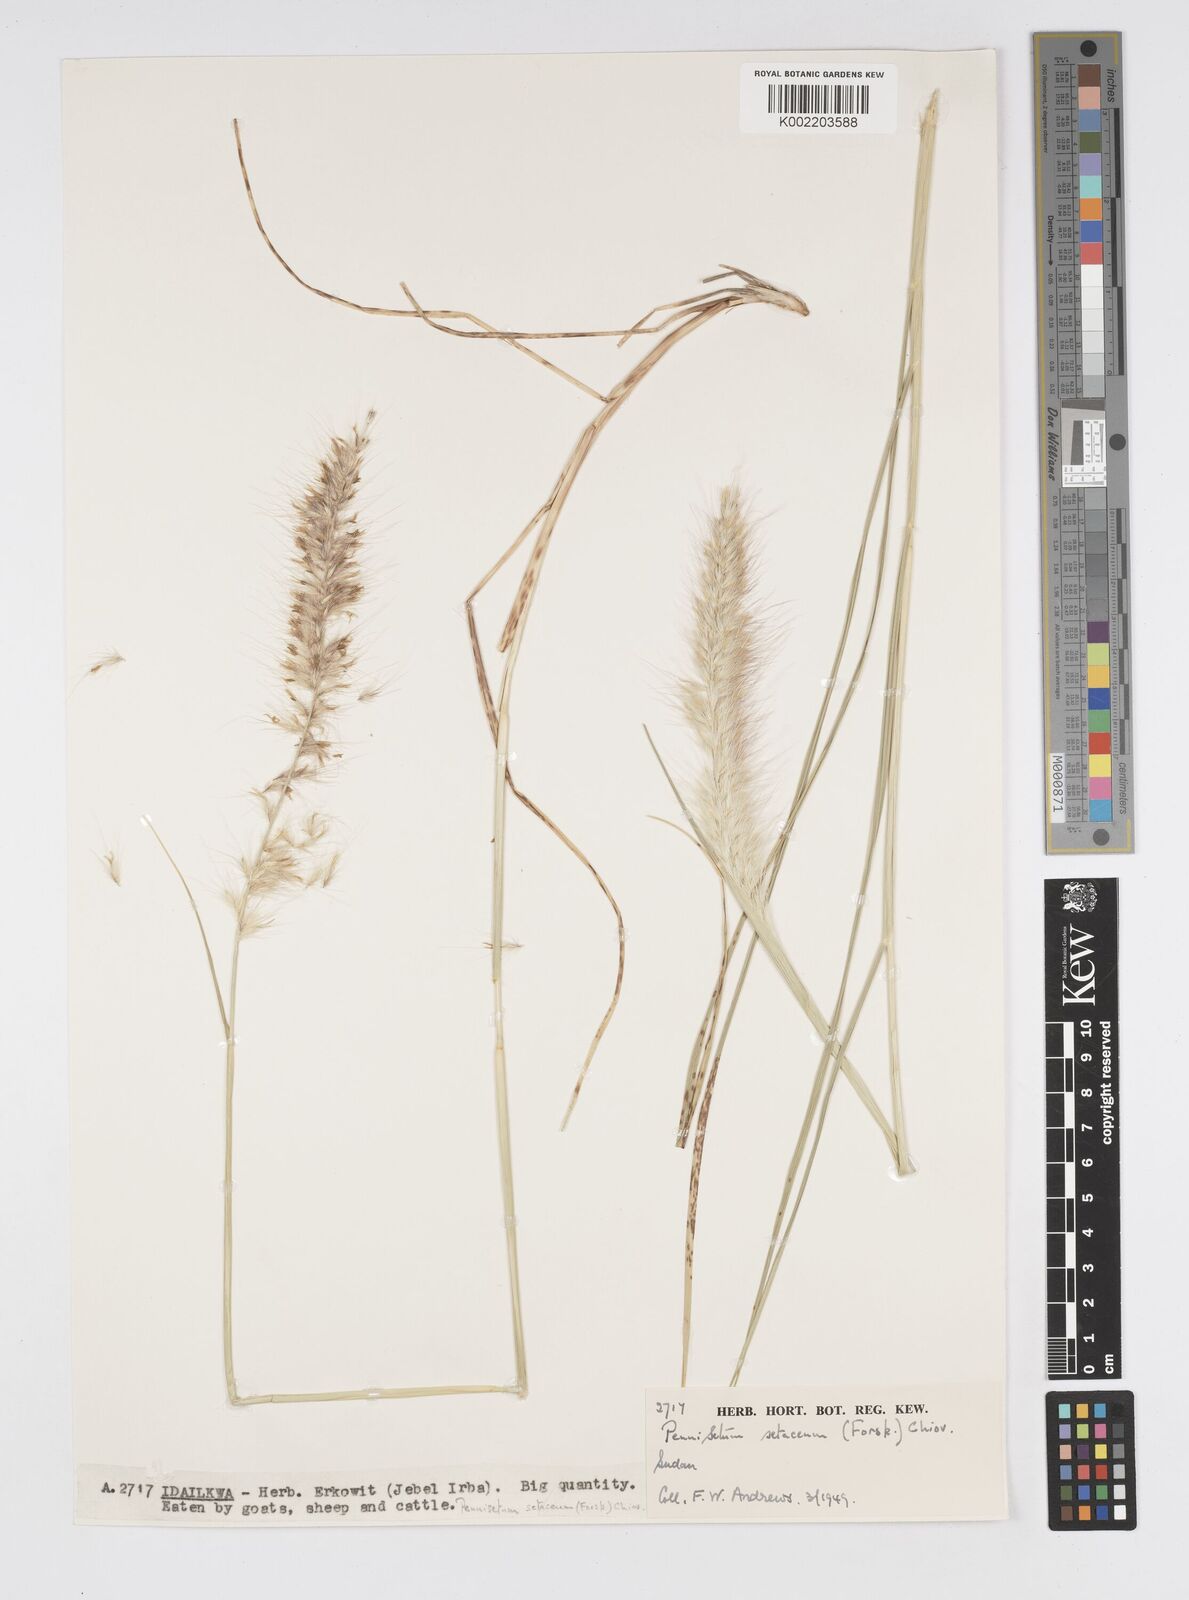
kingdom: Plantae
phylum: Tracheophyta
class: Liliopsida
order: Poales
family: Poaceae
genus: Cenchrus
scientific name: Cenchrus setaceus
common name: Crimson fountaingrass
